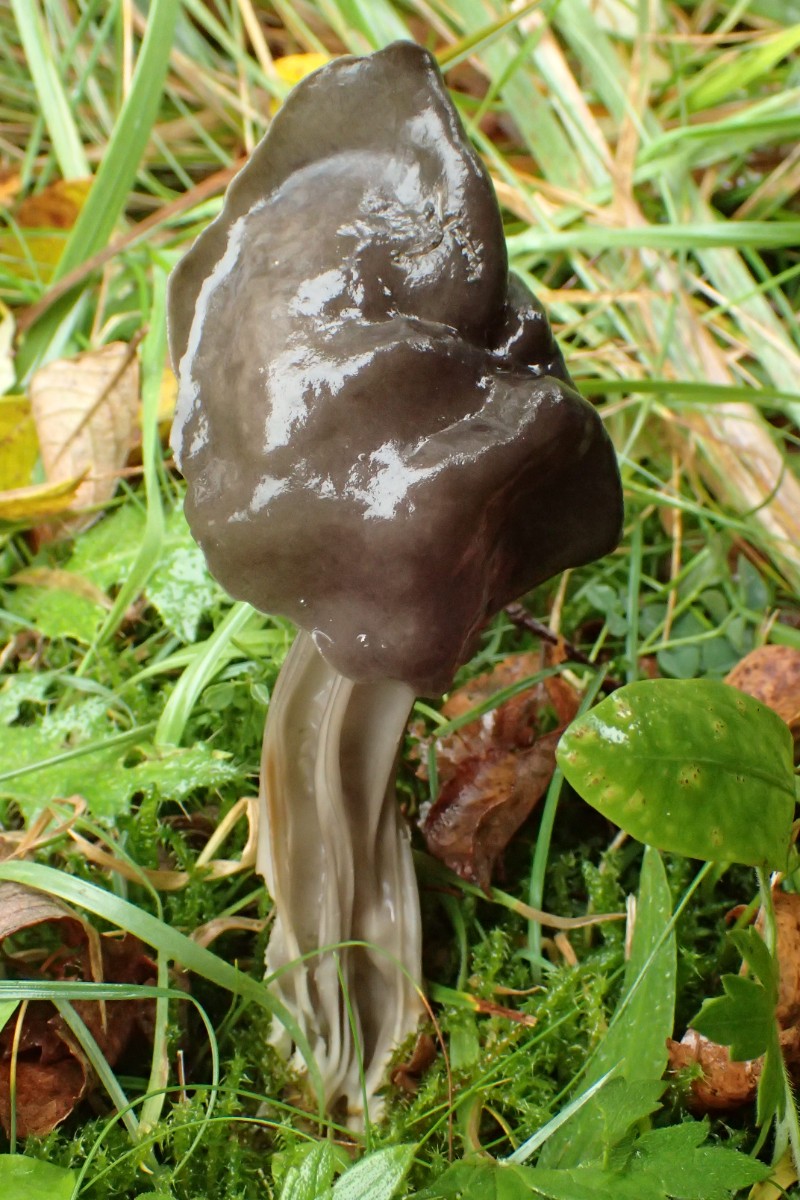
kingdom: Fungi
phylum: Ascomycota
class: Pezizomycetes
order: Pezizales
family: Helvellaceae
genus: Helvella
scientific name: Helvella lacunosa
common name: grubet foldhat
